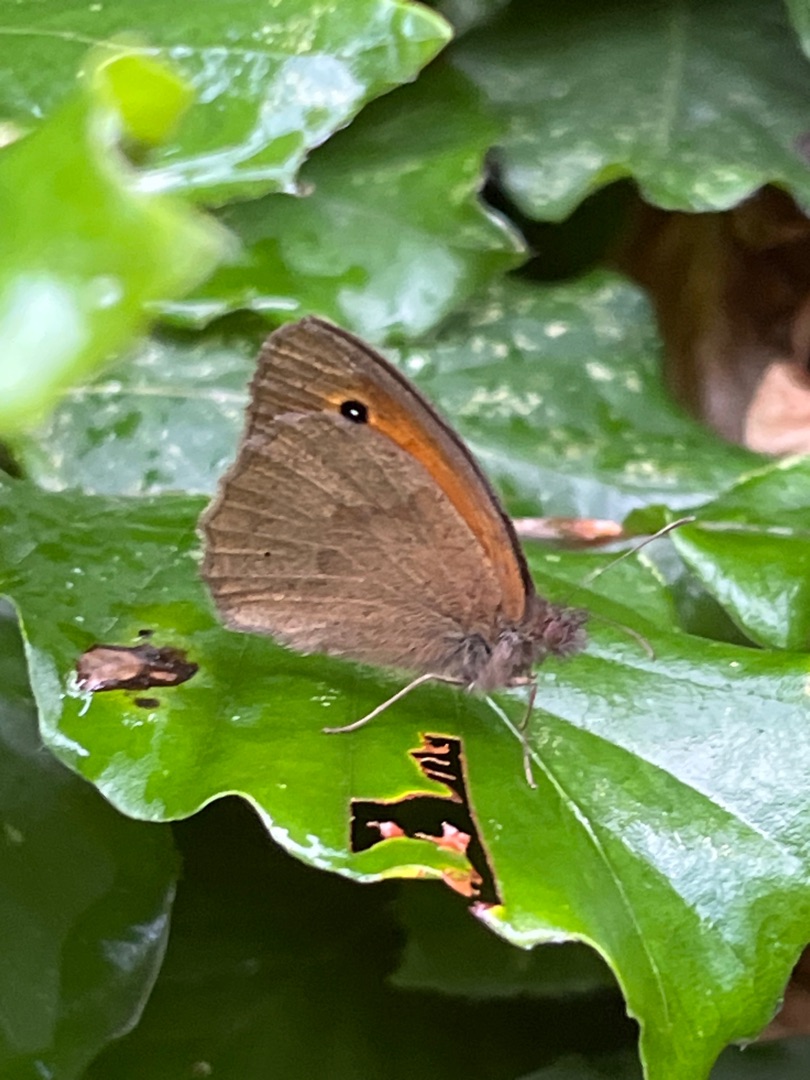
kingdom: Animalia
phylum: Arthropoda
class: Insecta
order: Lepidoptera
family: Nymphalidae
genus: Maniola
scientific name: Maniola jurtina
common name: Græsrandøje
